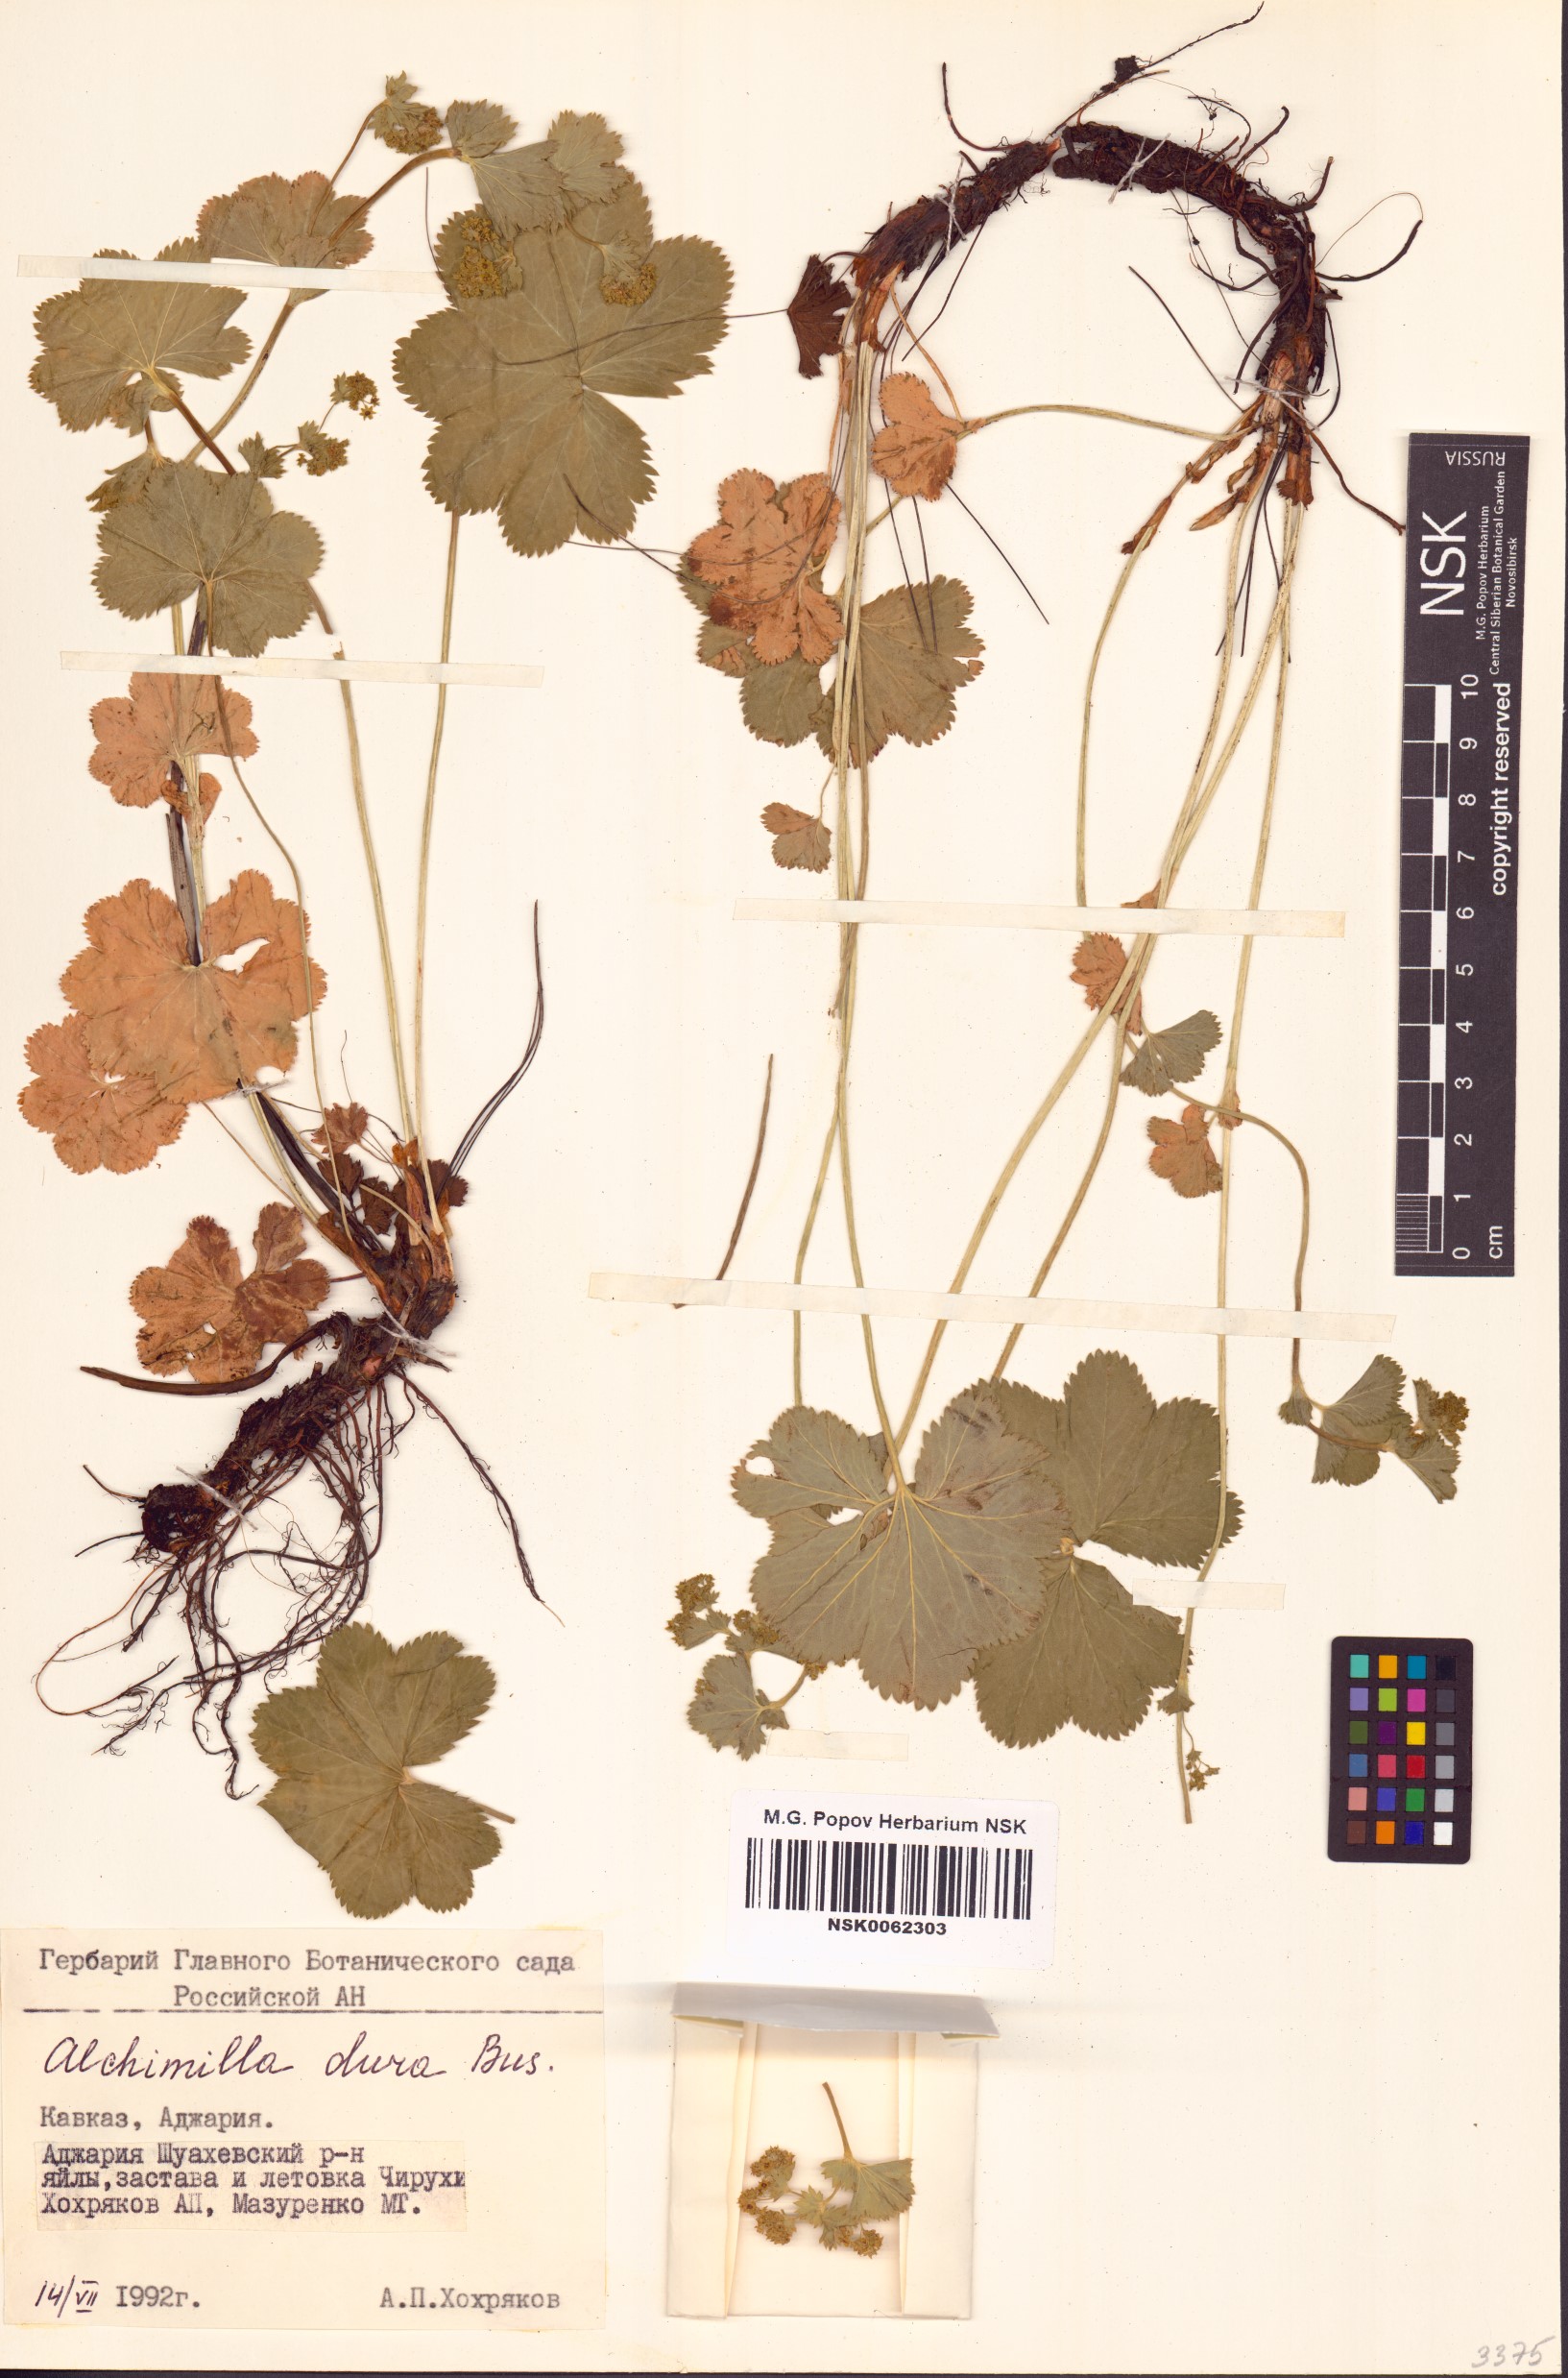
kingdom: Plantae
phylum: Tracheophyta
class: Magnoliopsida
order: Rosales
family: Rosaceae
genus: Alchemilla
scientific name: Alchemilla dura
